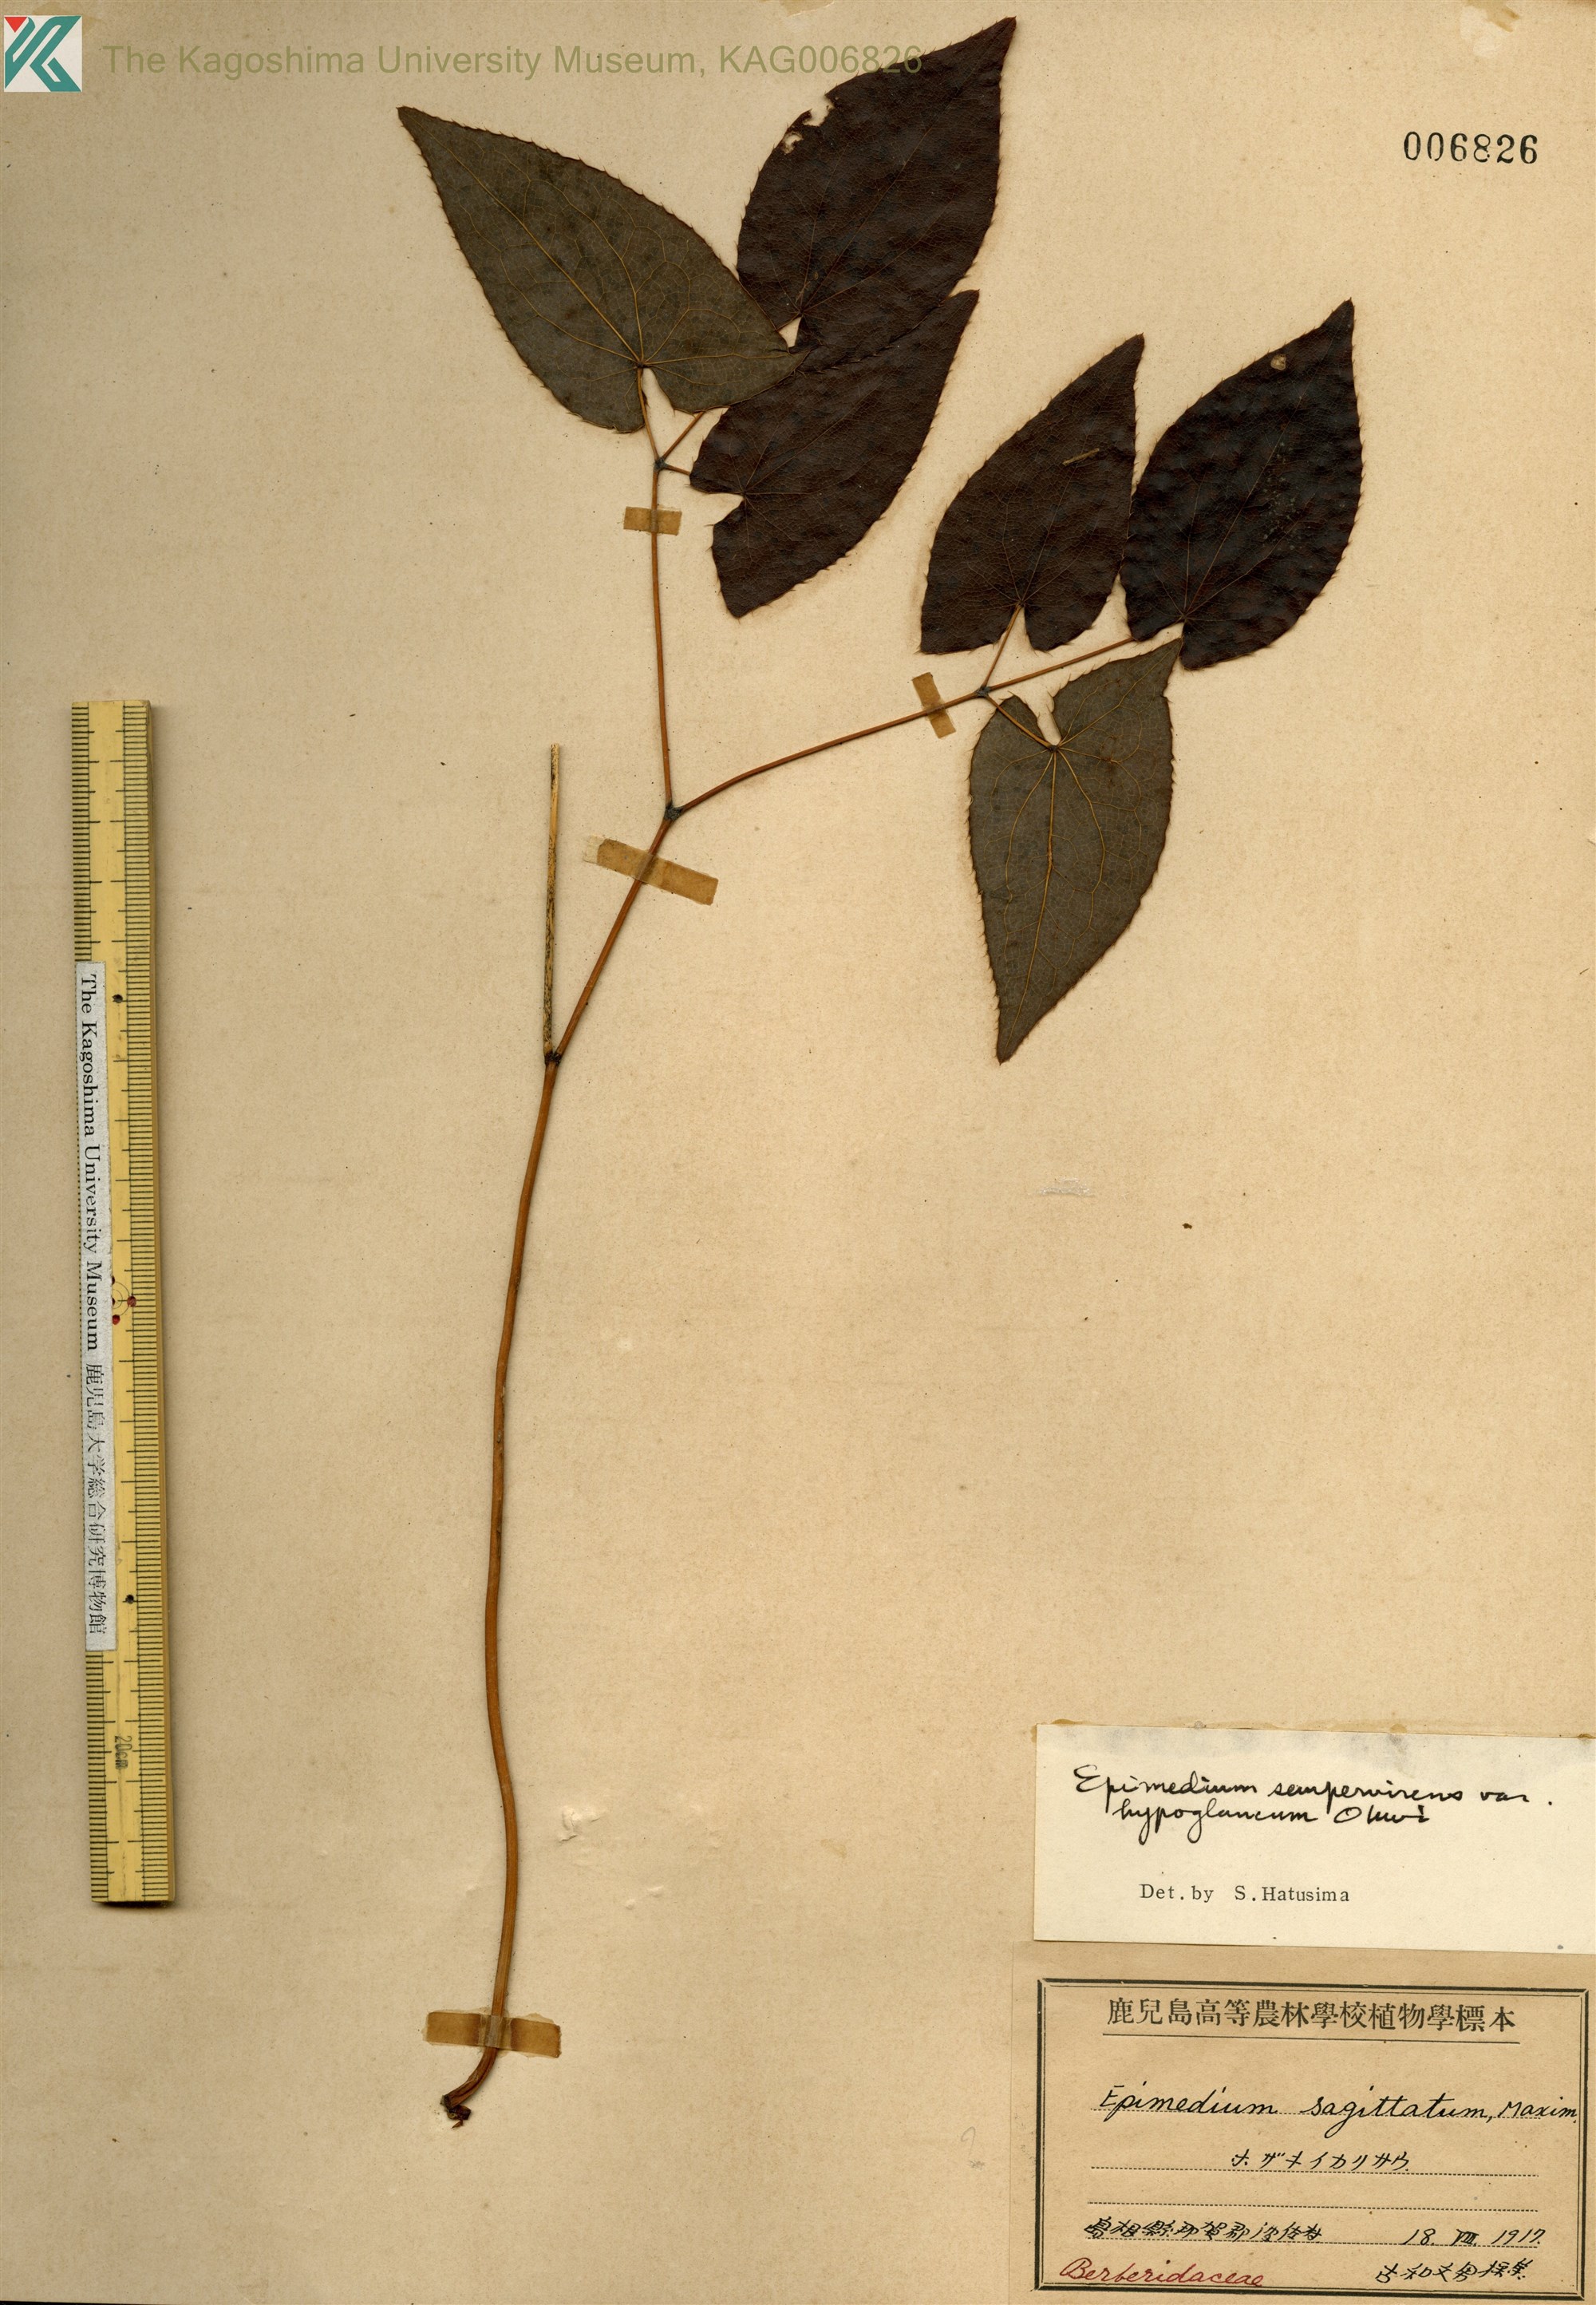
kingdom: Plantae
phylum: Tracheophyta
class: Magnoliopsida
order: Ranunculales
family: Berberidaceae
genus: Epimedium
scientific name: Epimedium sempervirens
